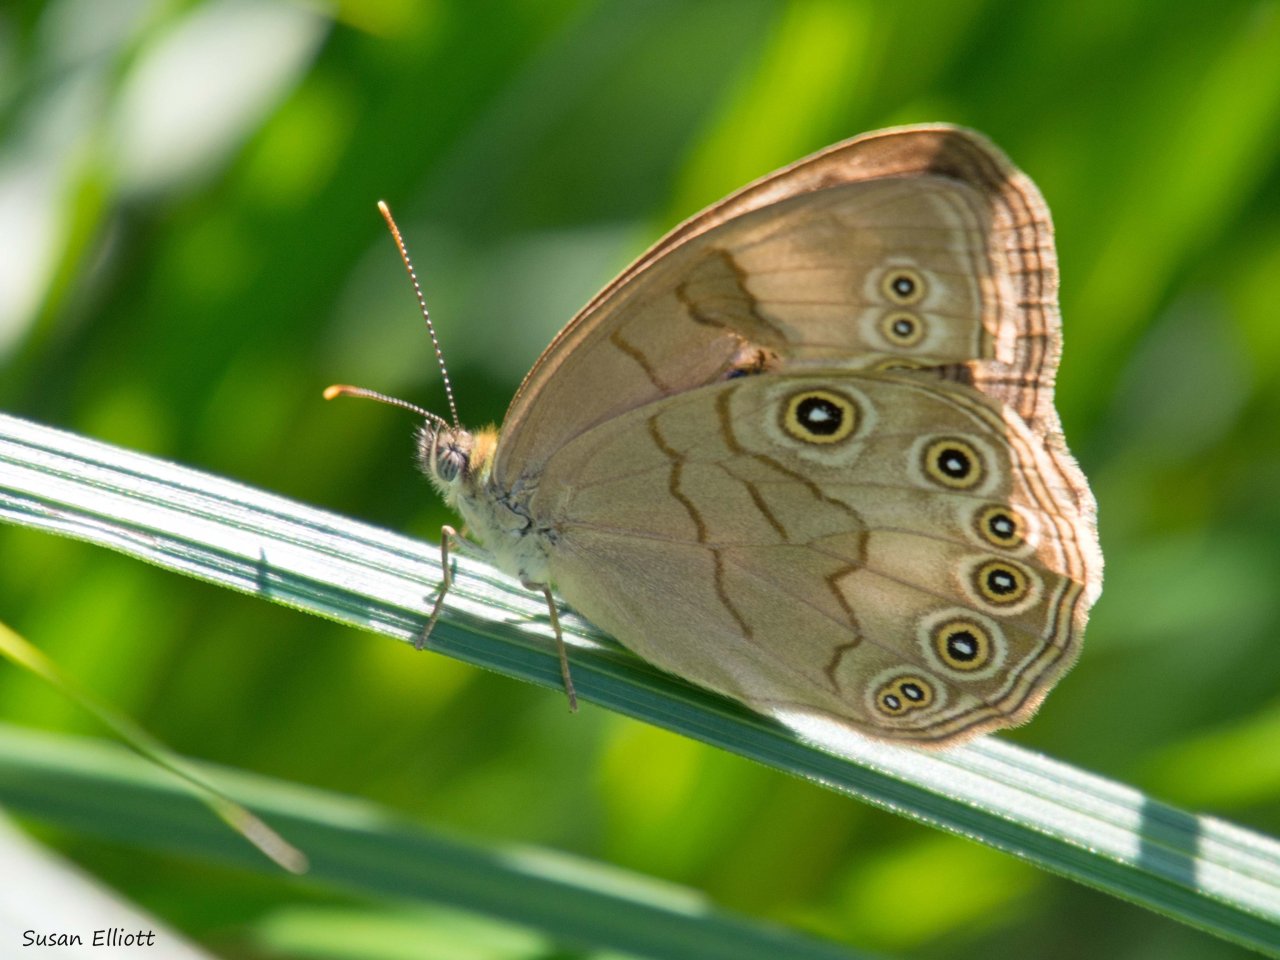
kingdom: Animalia
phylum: Arthropoda
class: Insecta
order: Lepidoptera
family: Nymphalidae
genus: Lethe
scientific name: Lethe eurydice
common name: Appalachian Eyed Brown
